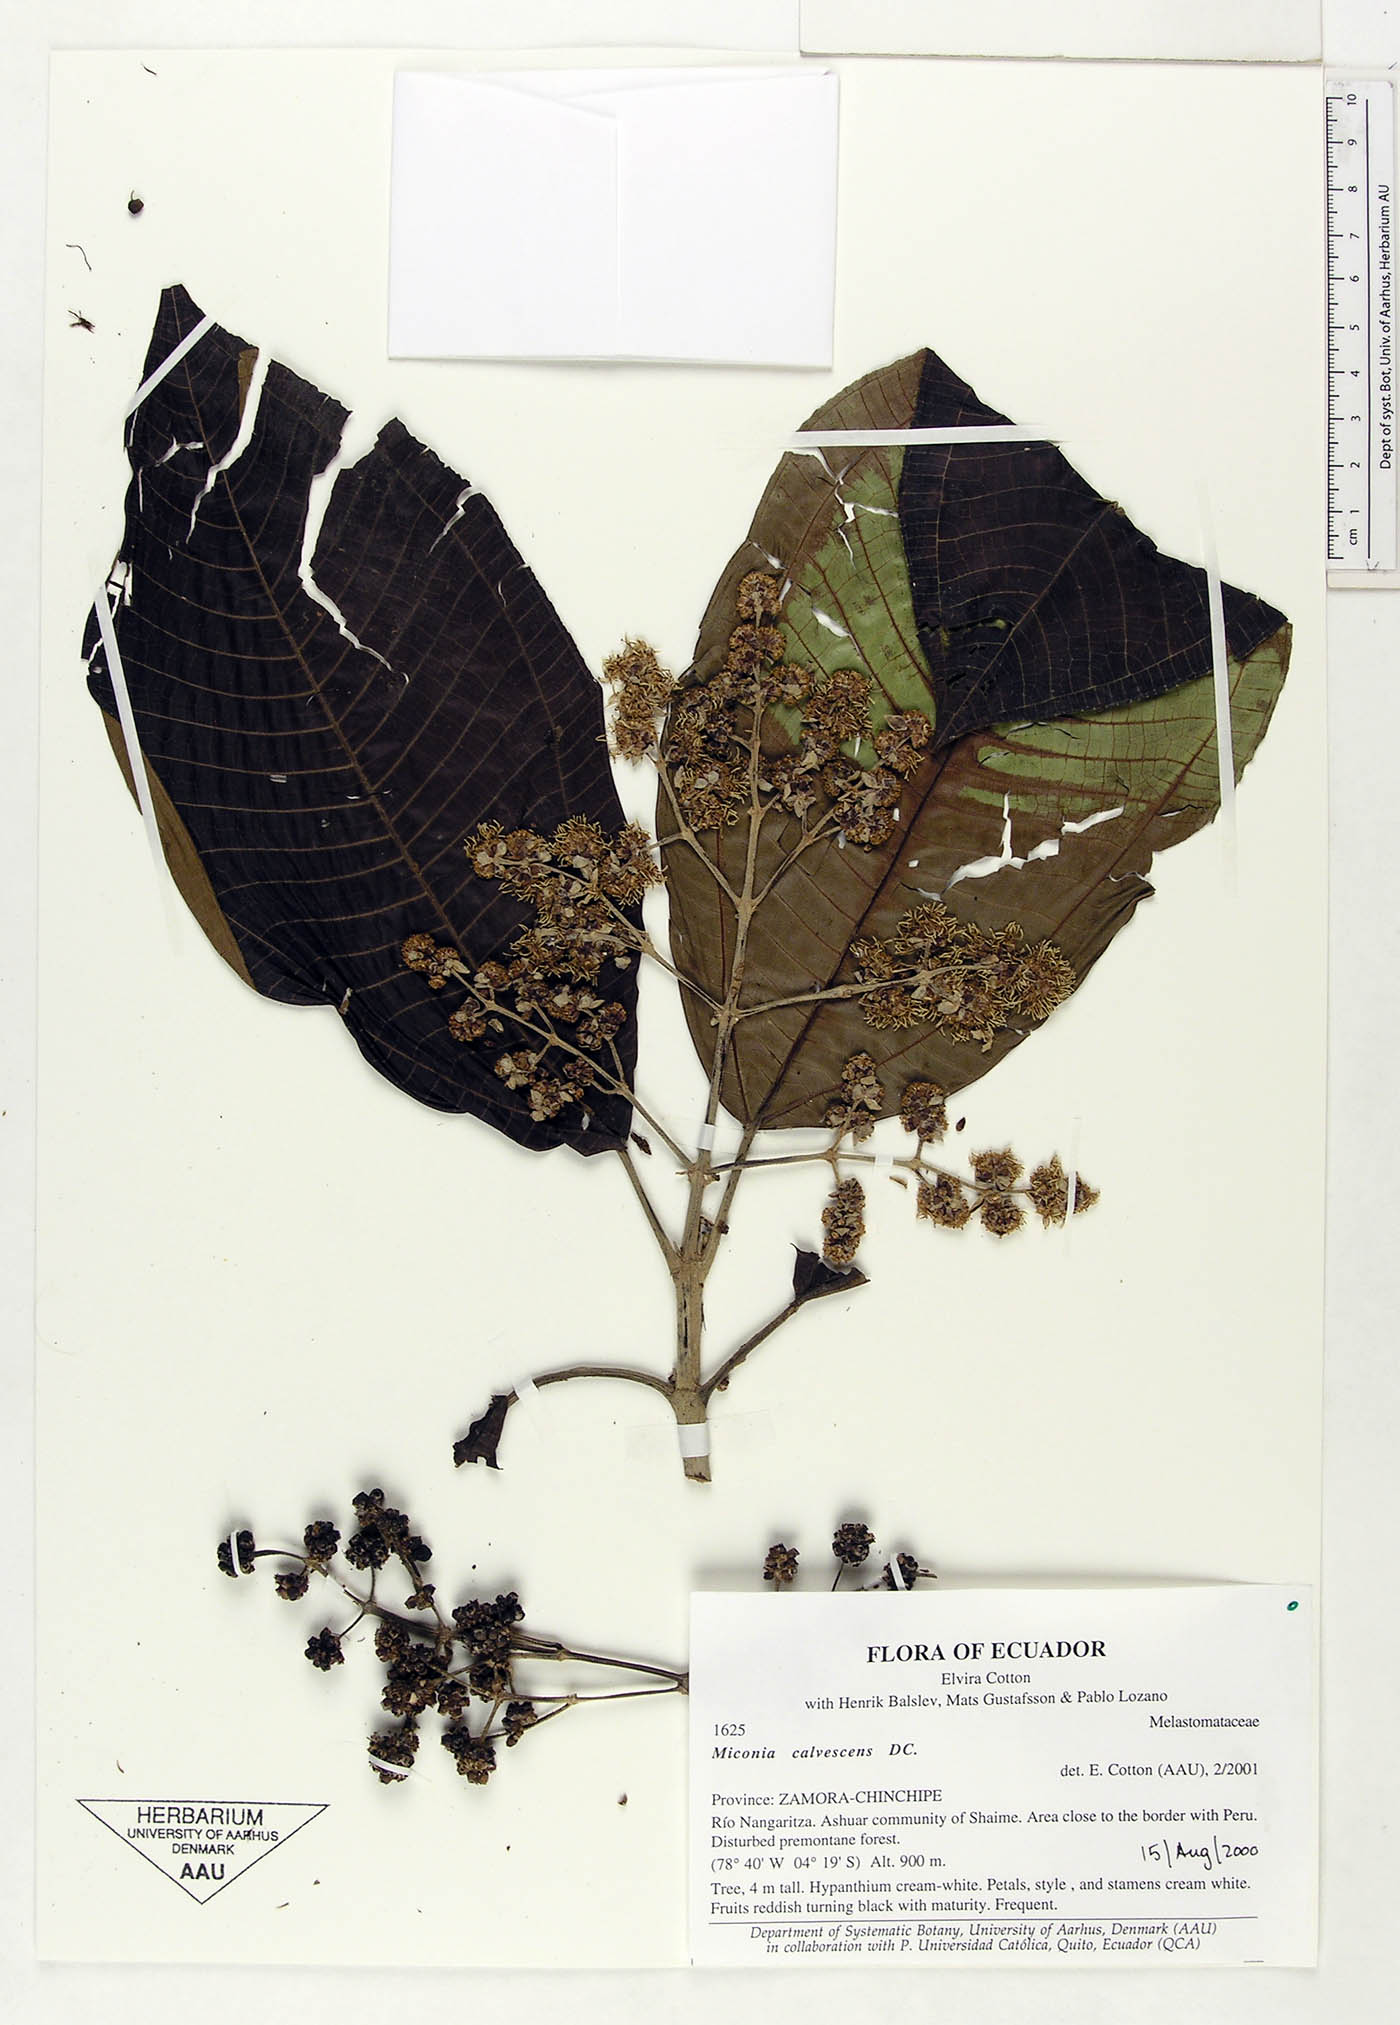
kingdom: Plantae
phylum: Tracheophyta
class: Magnoliopsida
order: Myrtales
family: Melastomataceae
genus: Miconia
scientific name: Miconia calvescens
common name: Purple plague
